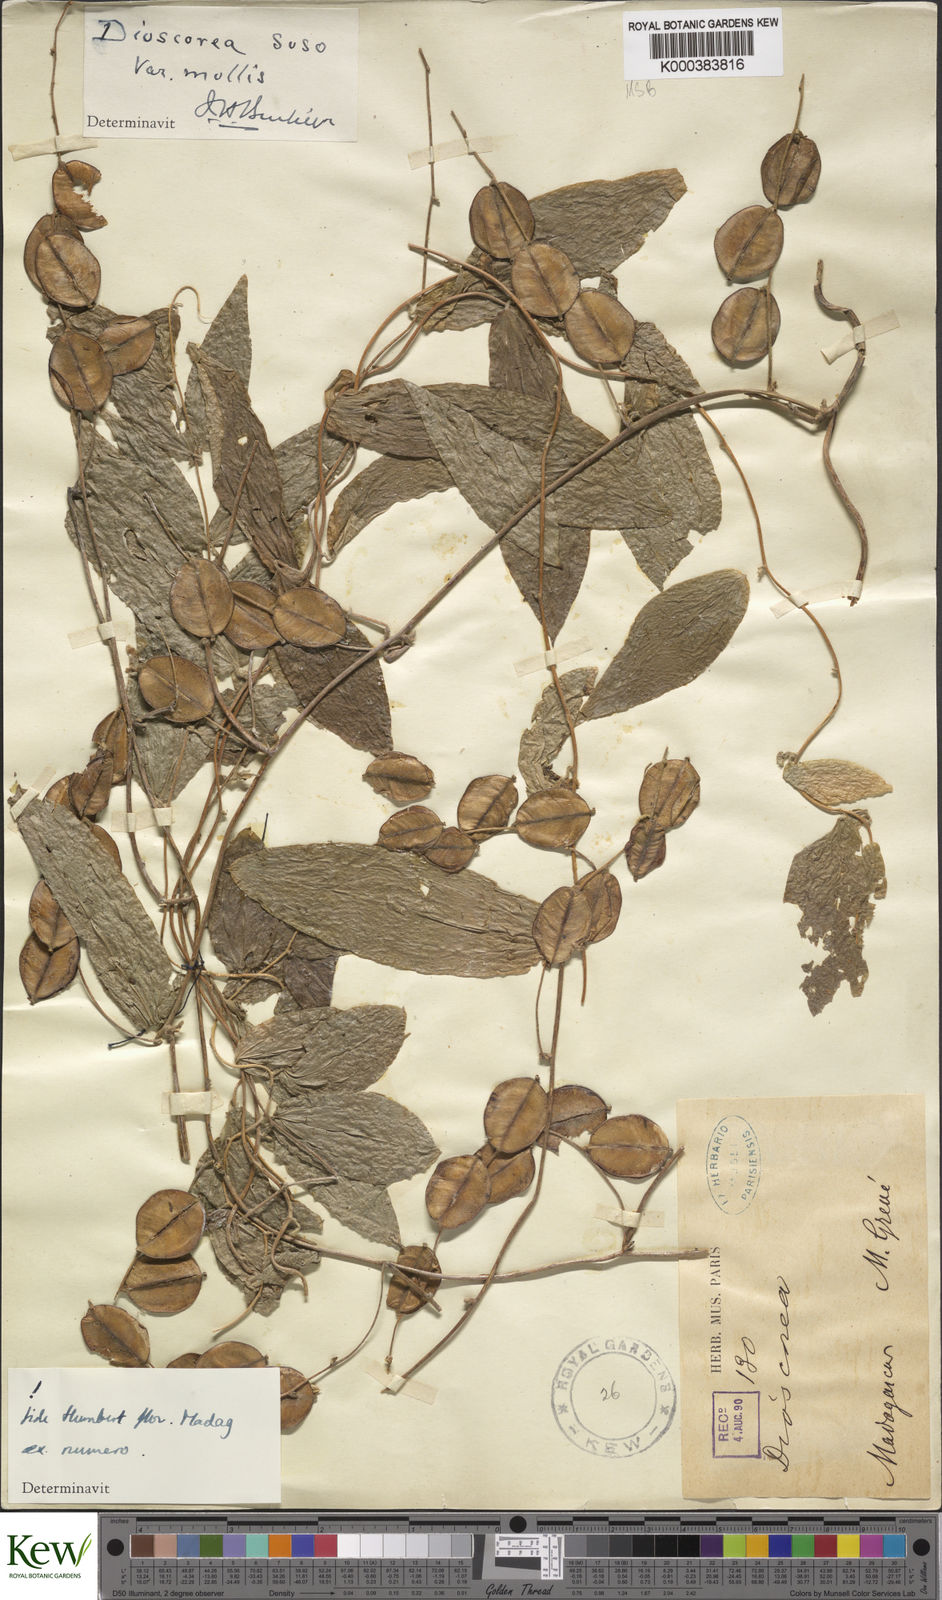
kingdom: Plantae
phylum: Tracheophyta
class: Liliopsida
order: Dioscoreales
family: Dioscoreaceae
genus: Dioscorea
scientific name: Dioscorea
